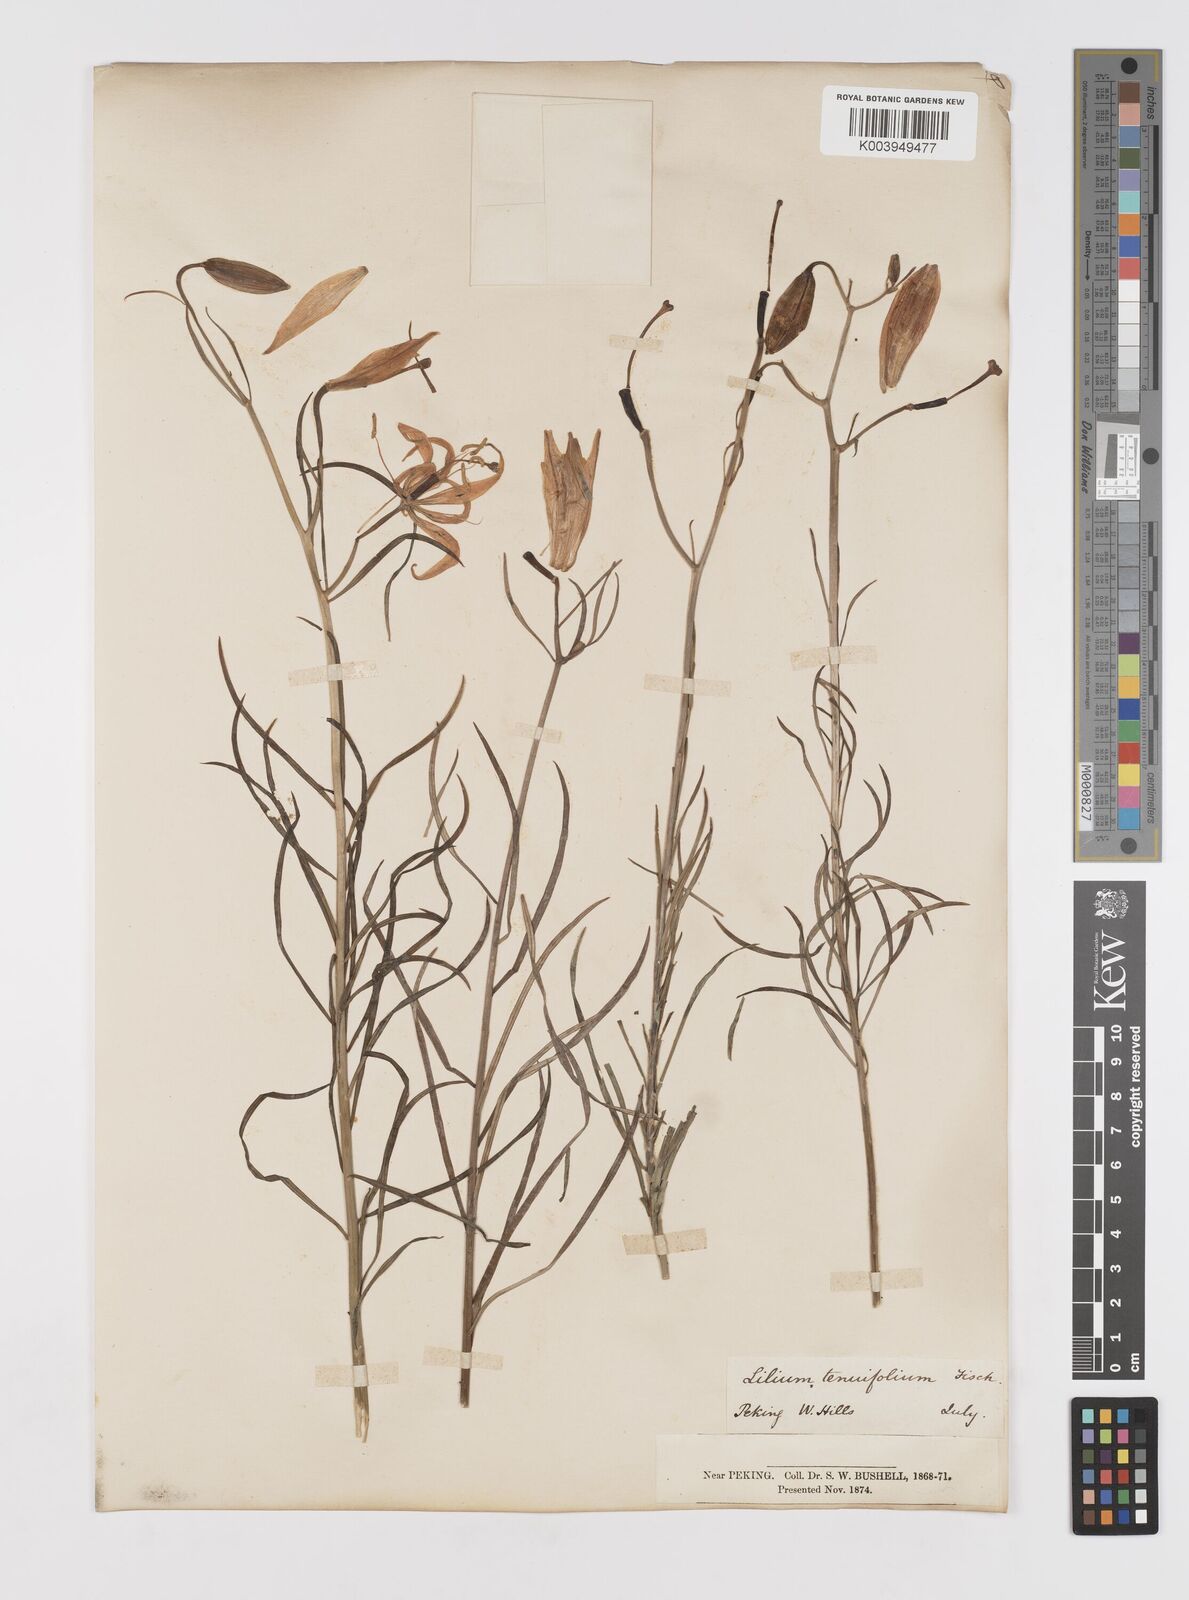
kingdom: Plantae
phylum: Tracheophyta
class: Liliopsida
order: Liliales
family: Liliaceae
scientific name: Liliaceae
